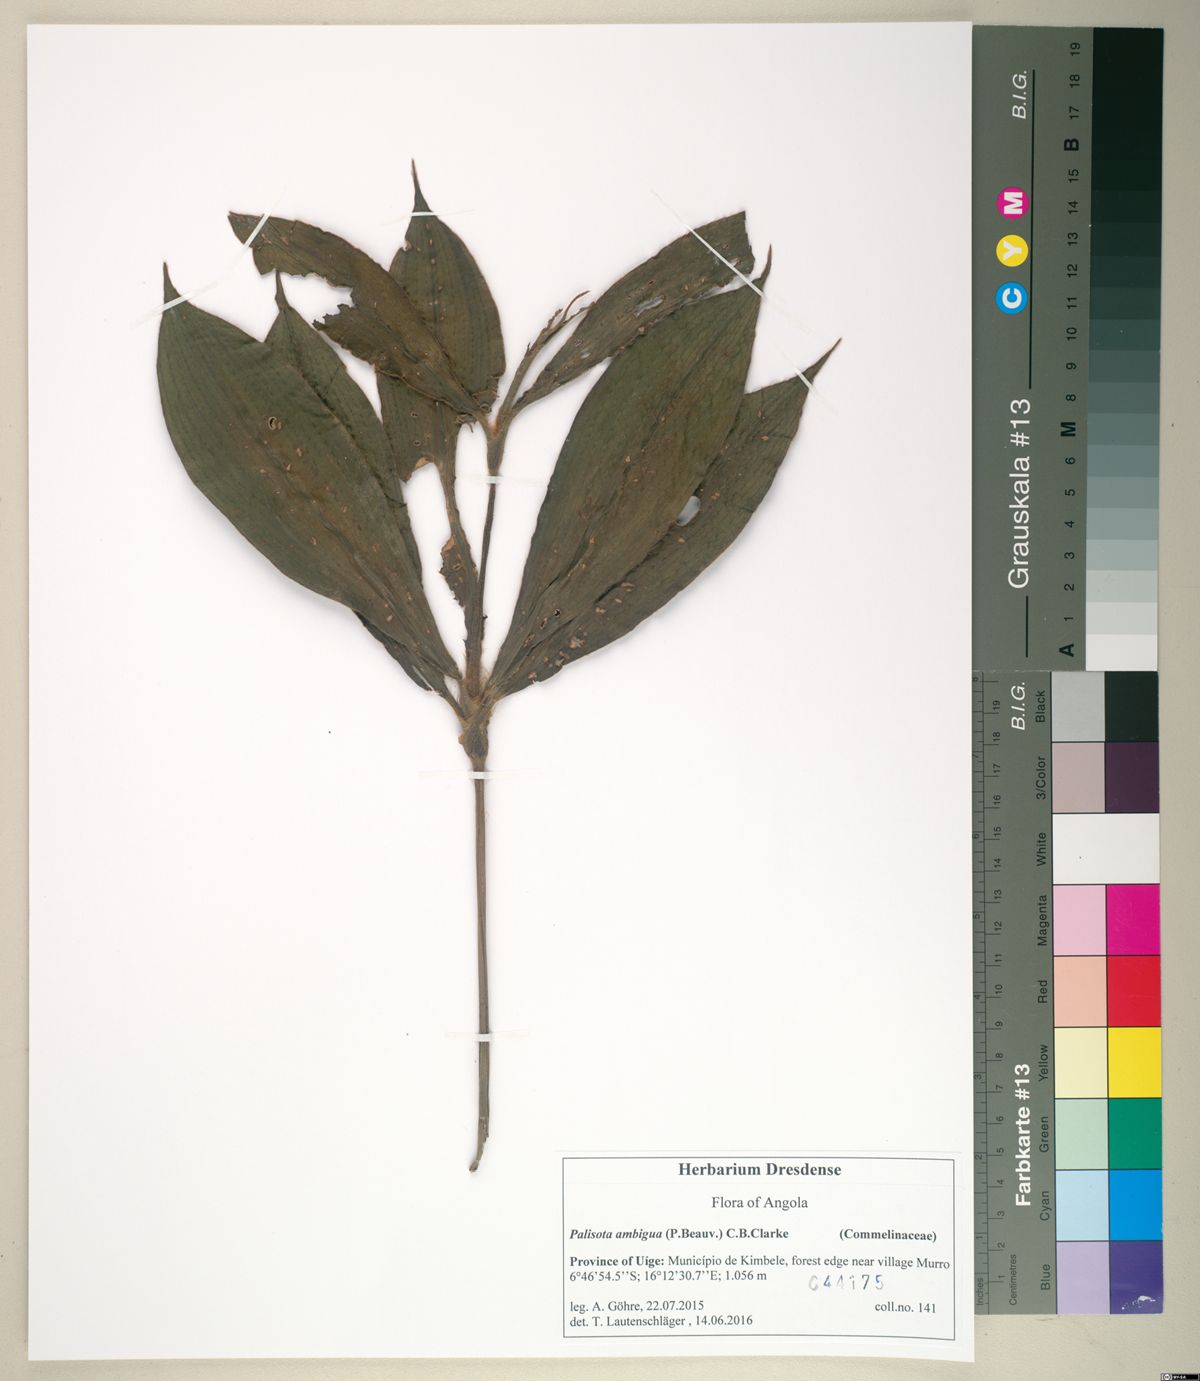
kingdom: Plantae
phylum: Tracheophyta
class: Liliopsida
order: Commelinales
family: Commelinaceae
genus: Palisota
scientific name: Palisota ambigua
